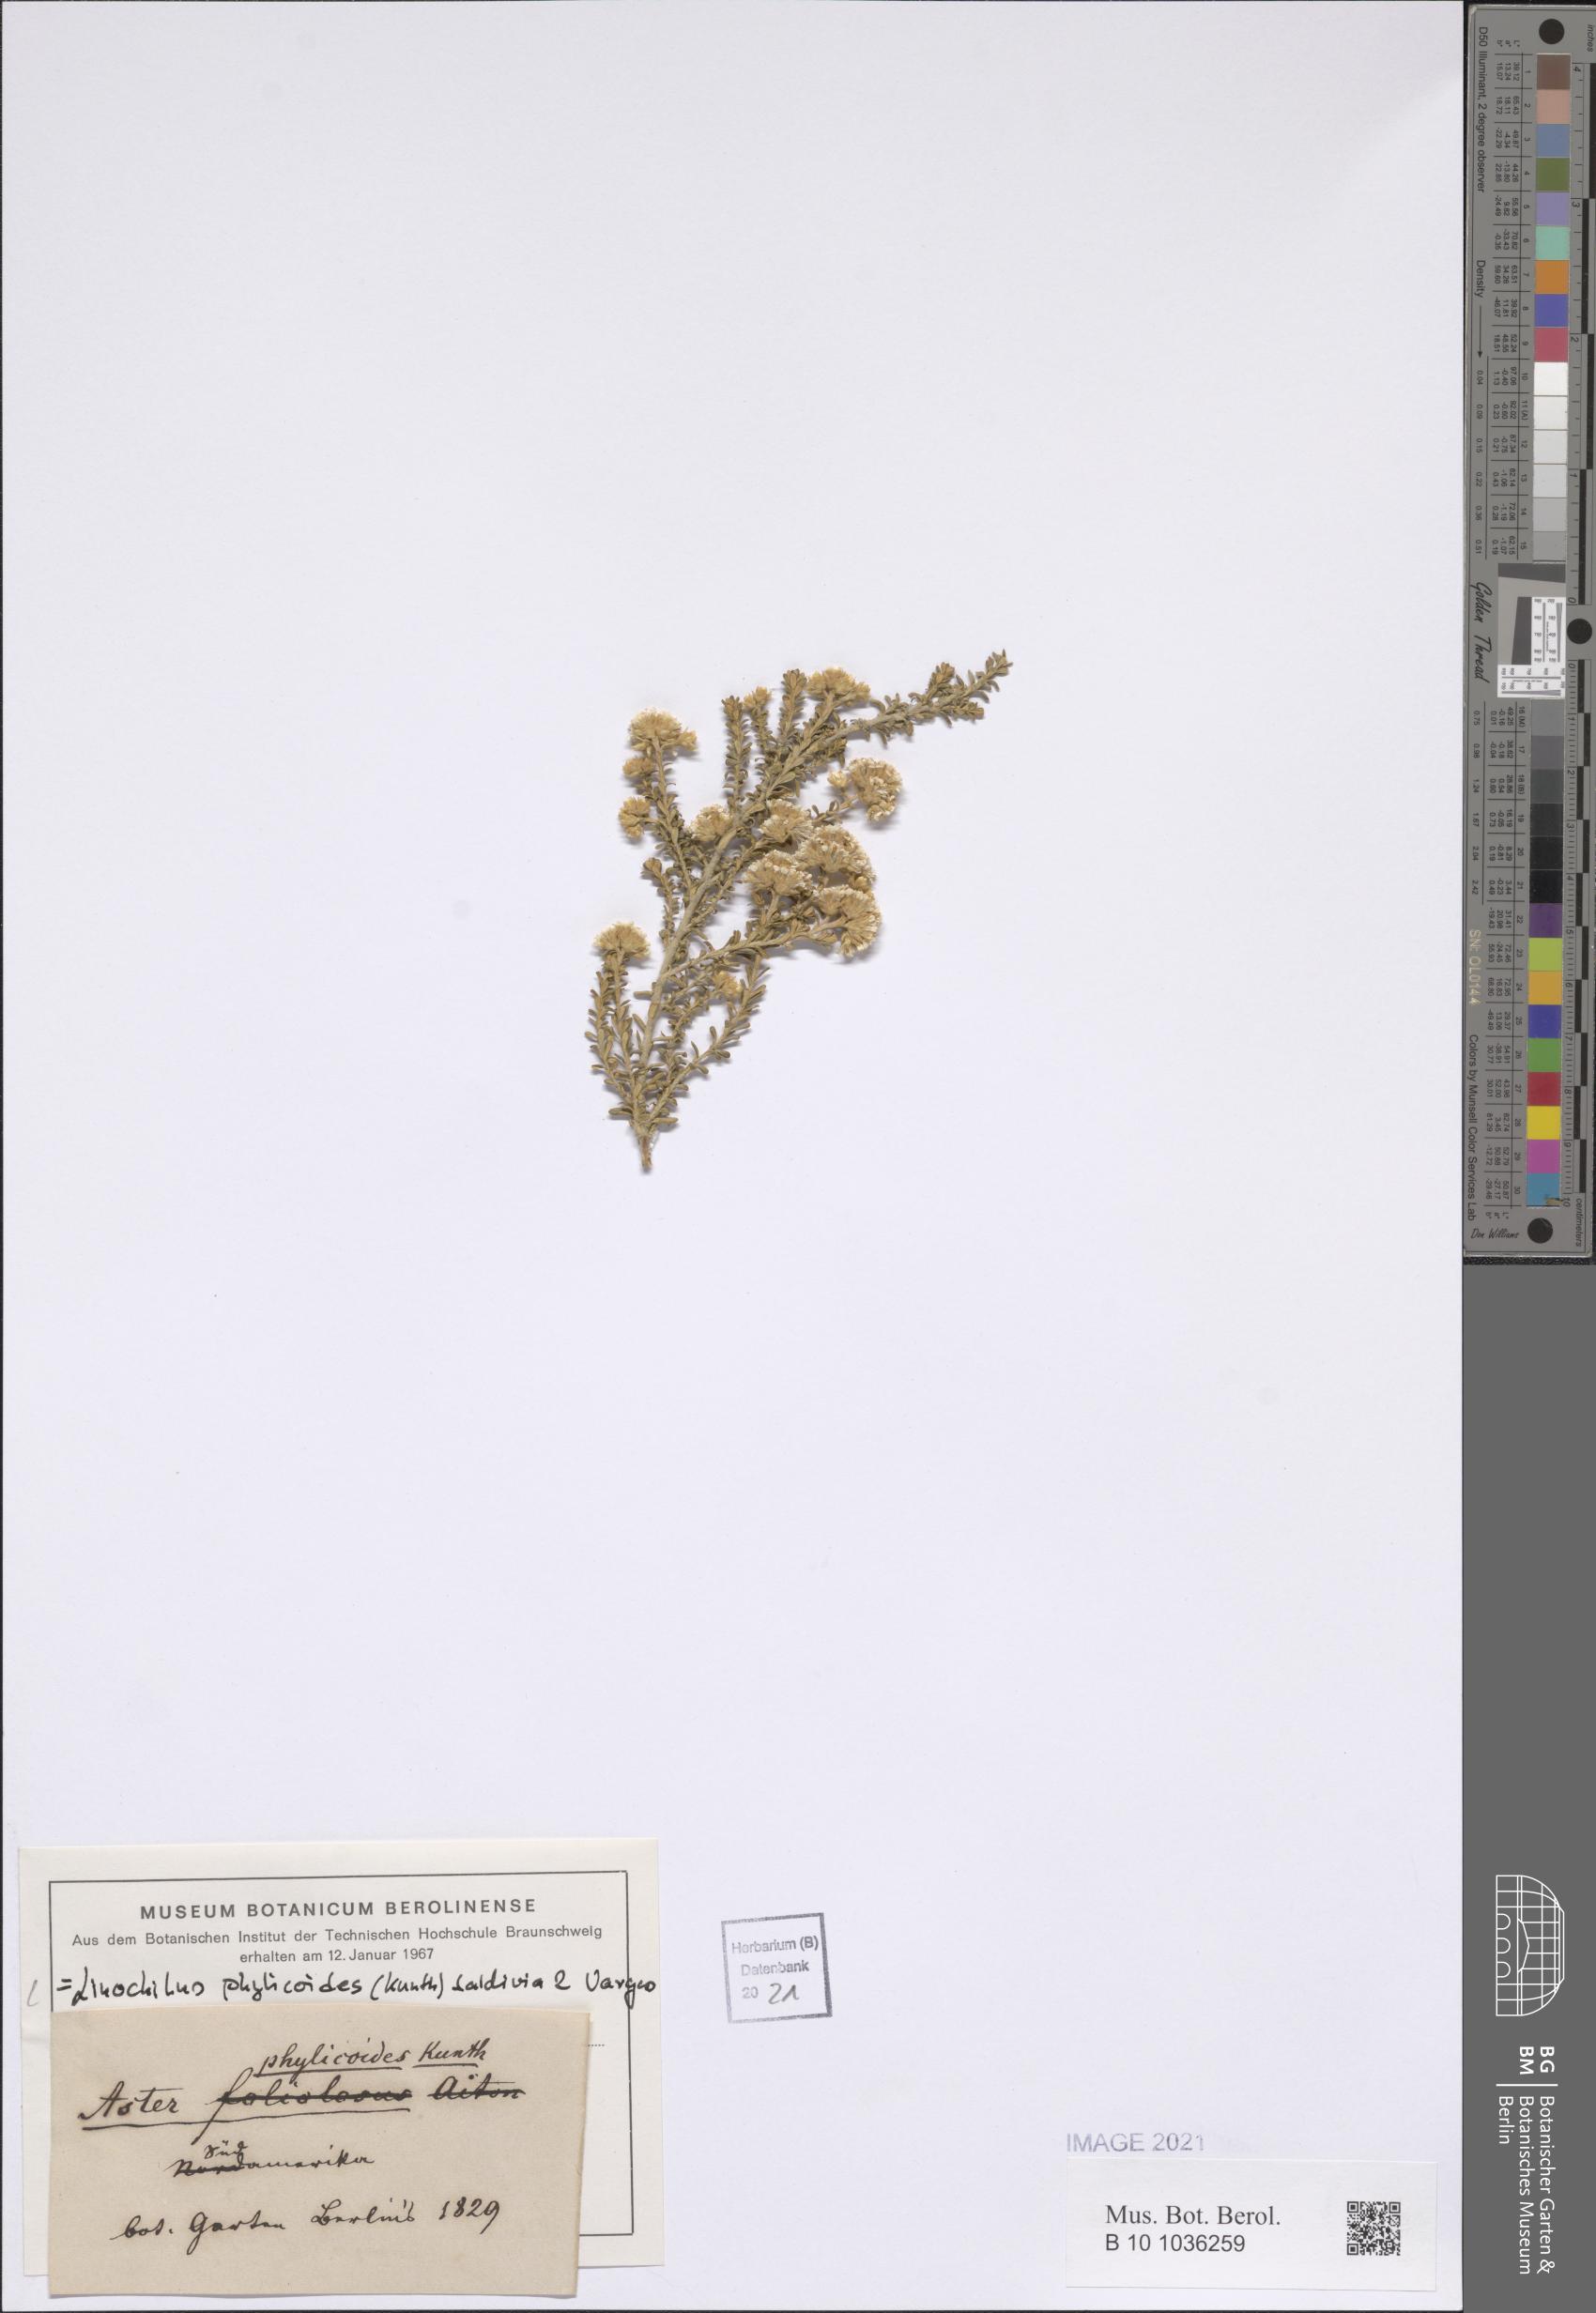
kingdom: Plantae
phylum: Tracheophyta
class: Magnoliopsida
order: Asterales
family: Asteraceae
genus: Linochilus
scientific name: Linochilus phylicoides
